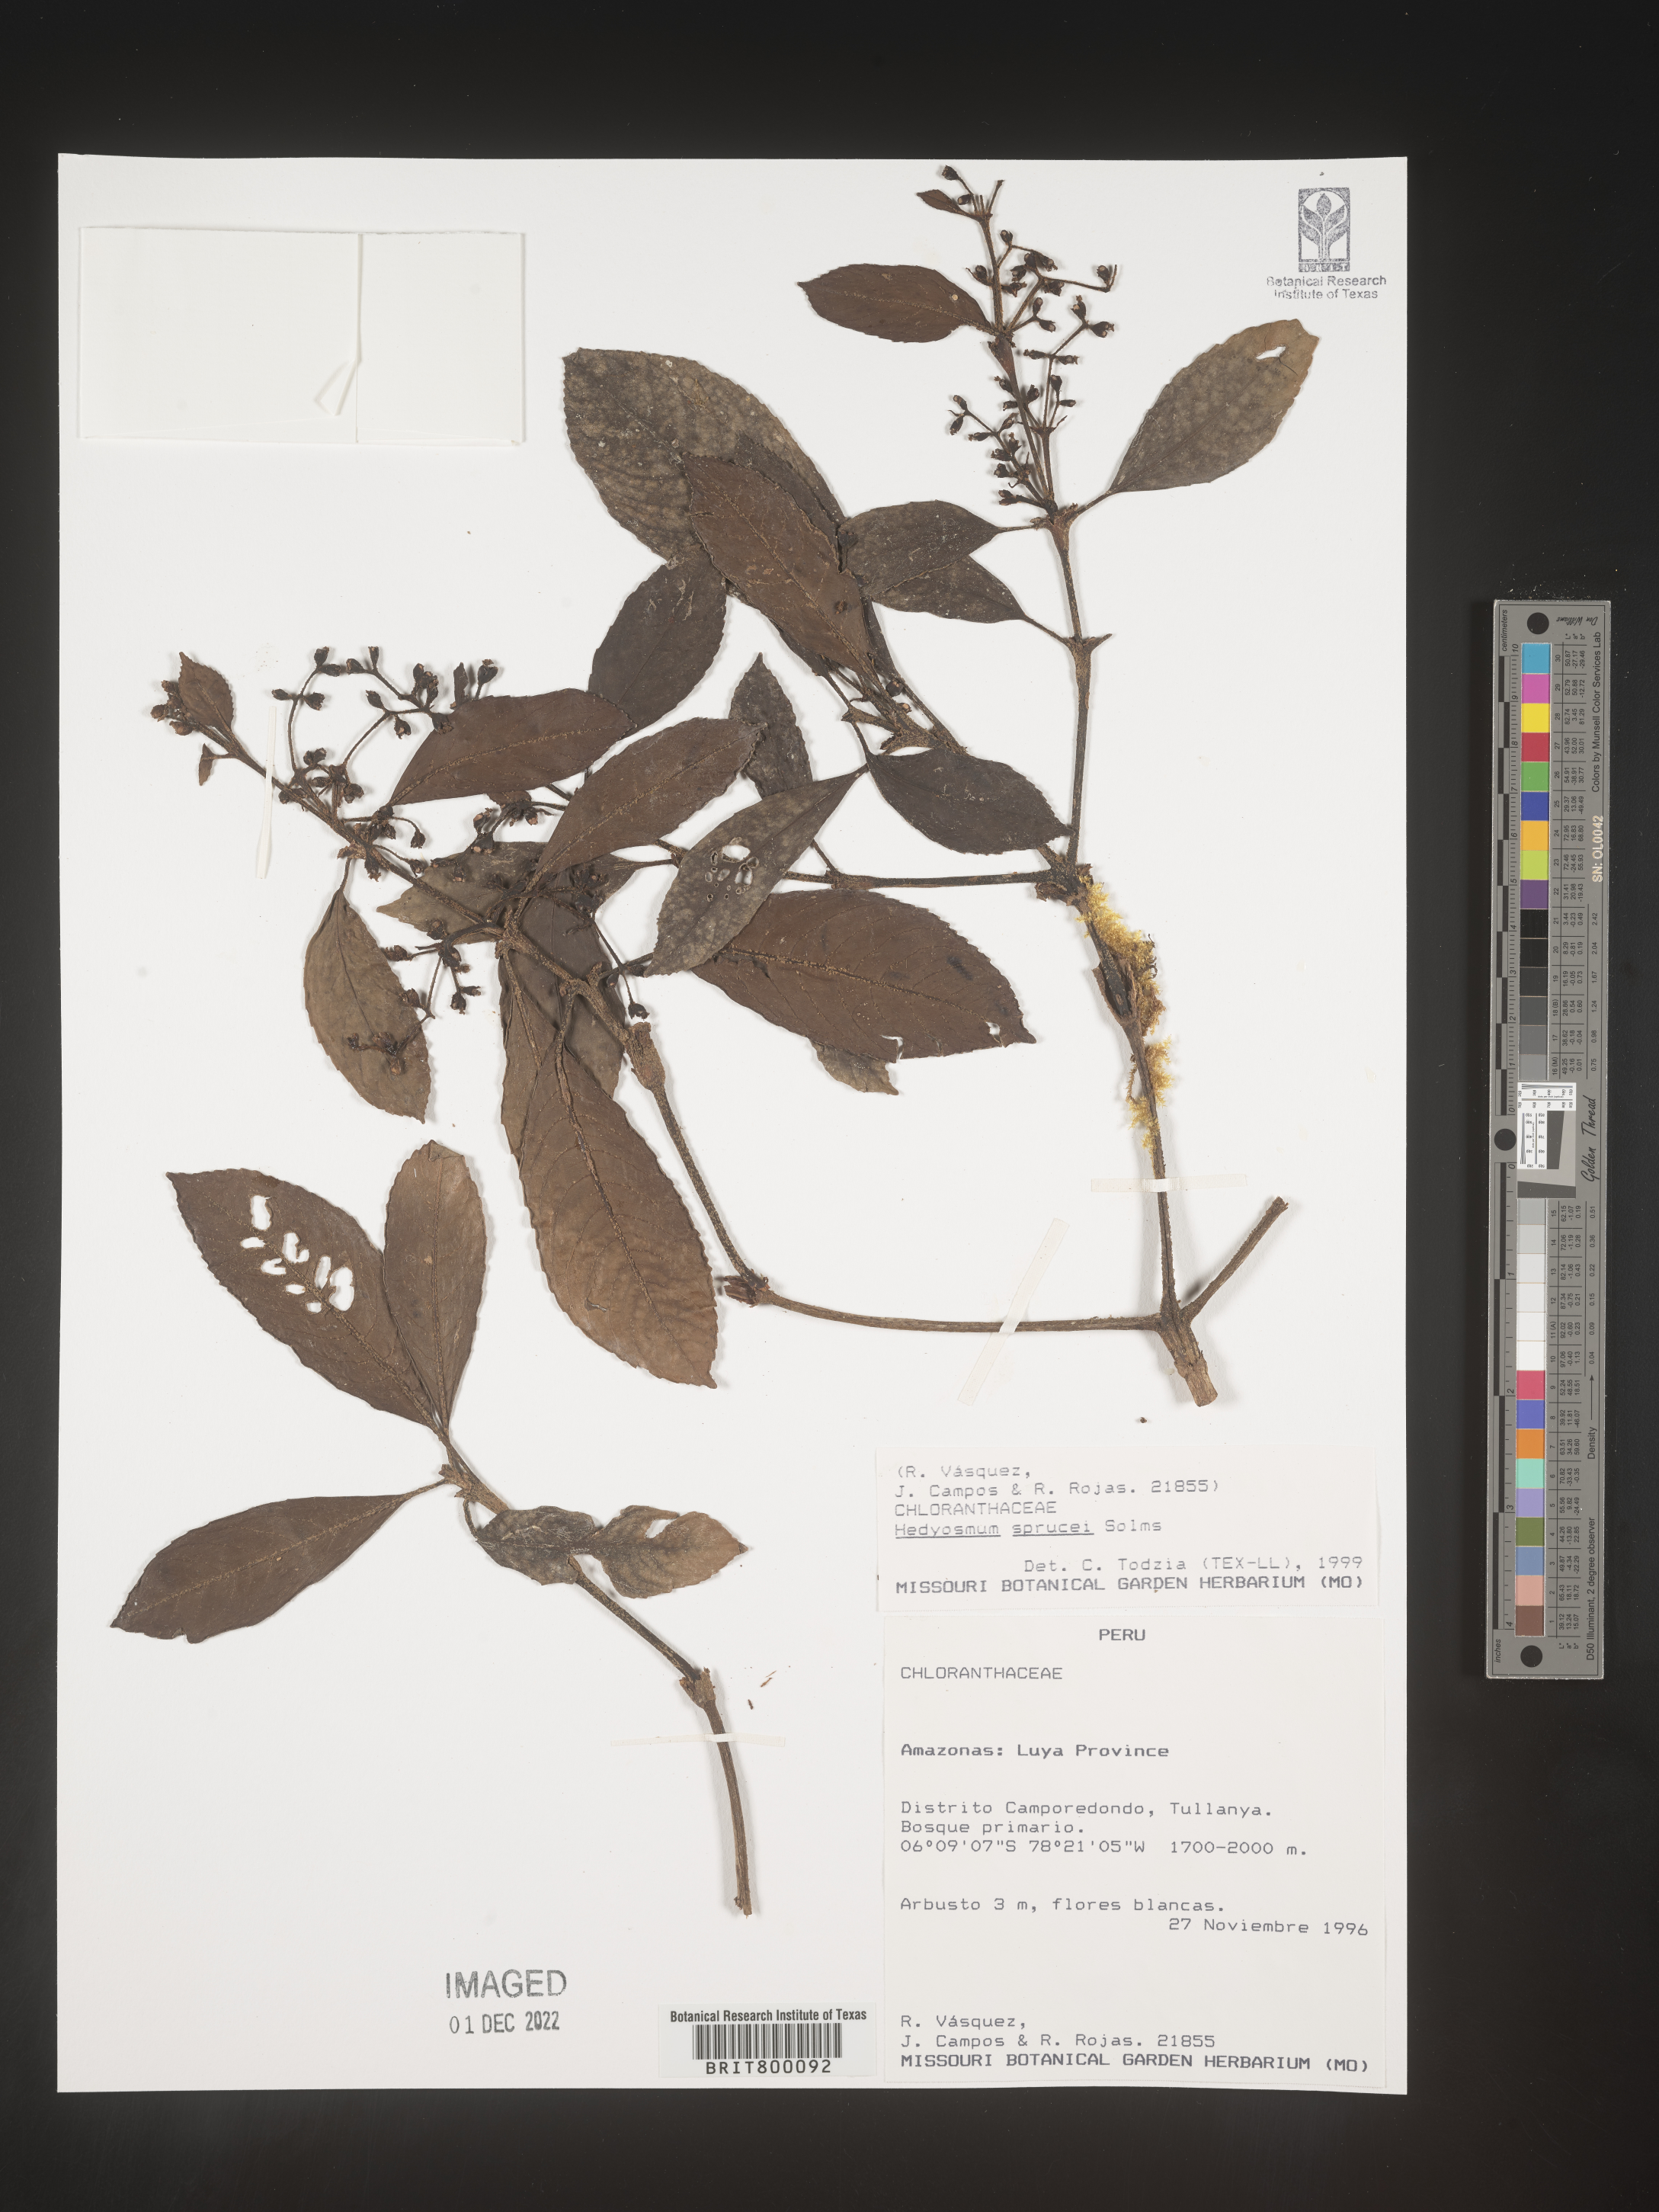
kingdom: Plantae
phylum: Tracheophyta
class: Magnoliopsida
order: Chloranthales
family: Chloranthaceae
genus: Hedyosmum
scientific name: Hedyosmum
